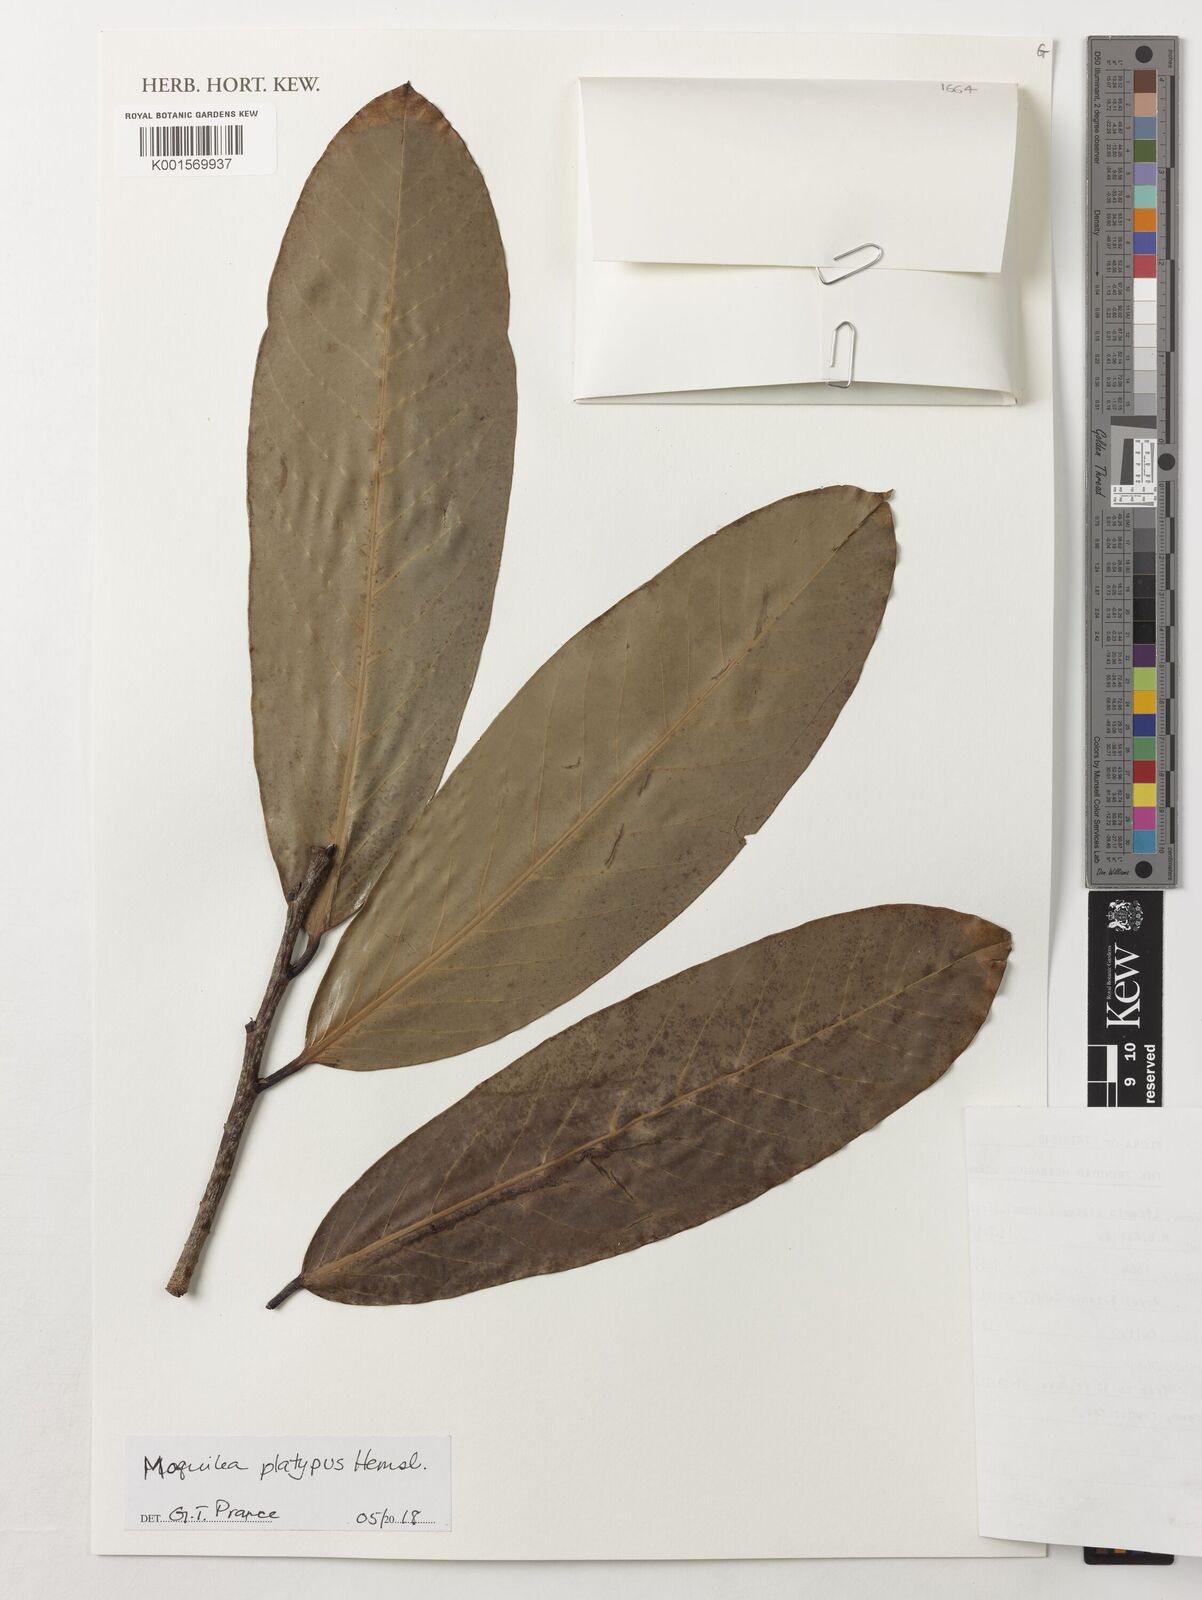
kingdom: Plantae
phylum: Tracheophyta
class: Magnoliopsida
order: Malpighiales
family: Chrysobalanaceae
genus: Moquilea
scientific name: Moquilea platypus
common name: Sansapote
